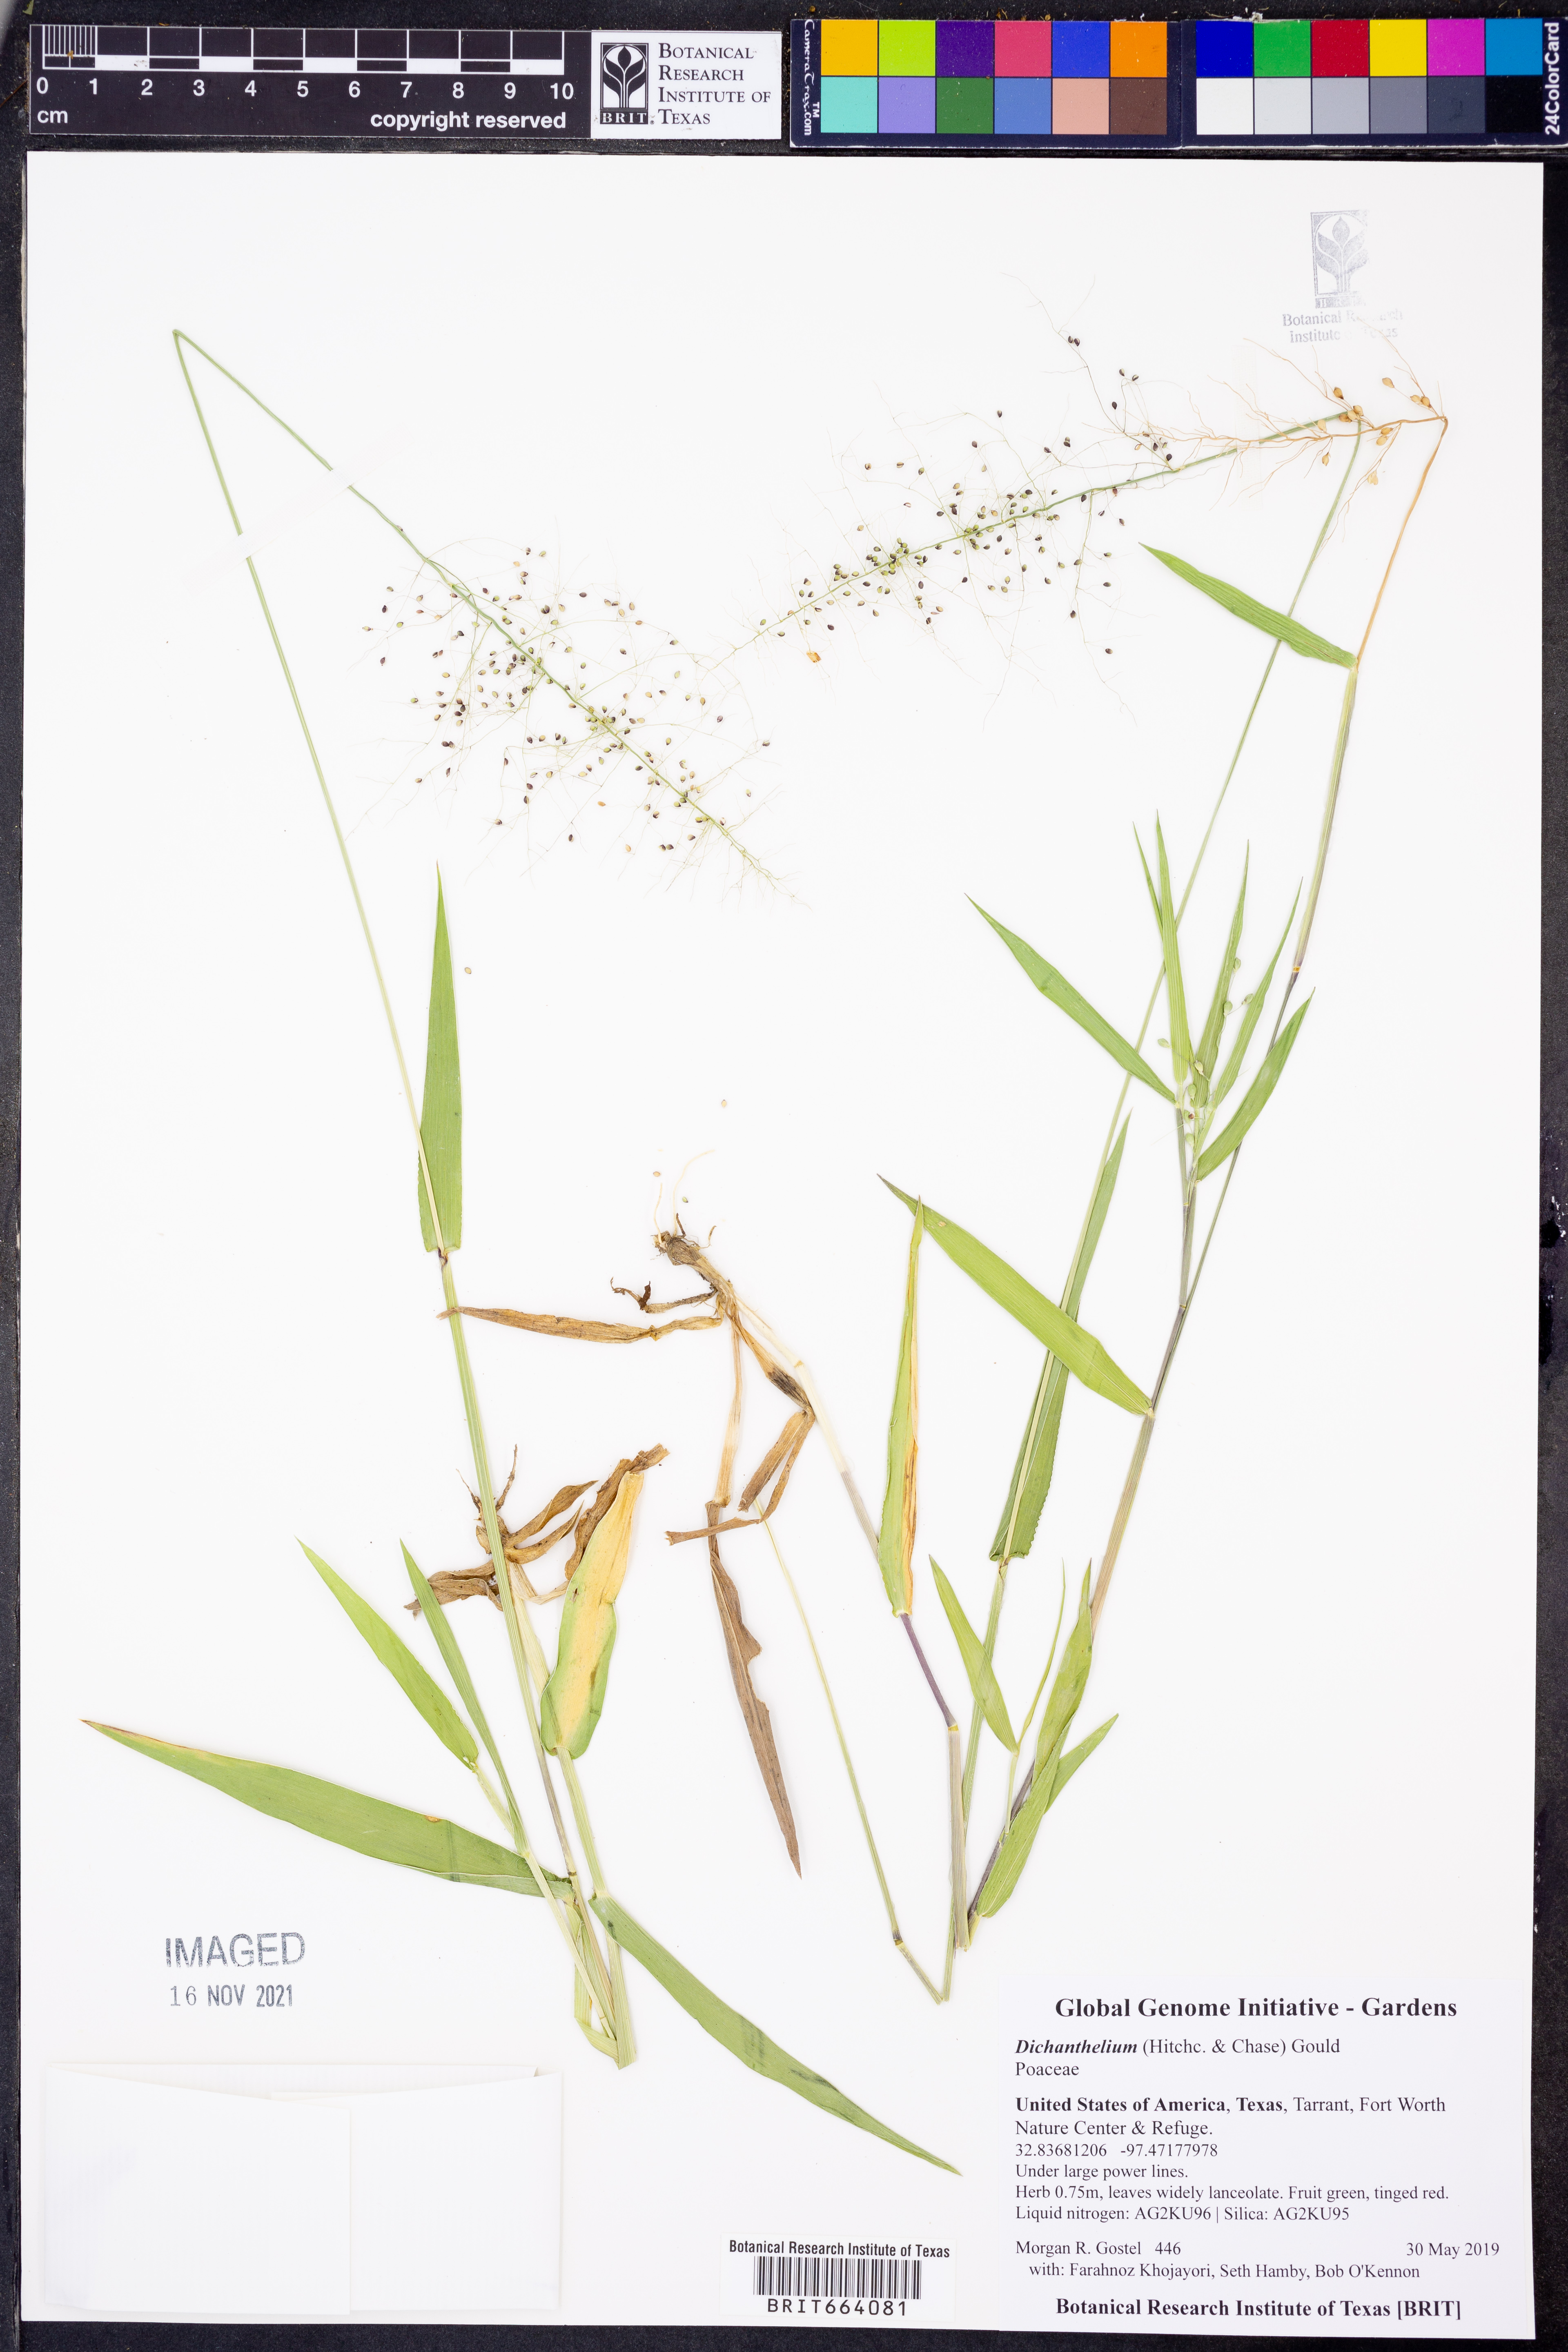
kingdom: Plantae
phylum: Tracheophyta
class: Liliopsida
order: Poales
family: Poaceae
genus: Dichanthelium
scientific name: Dichanthelium
